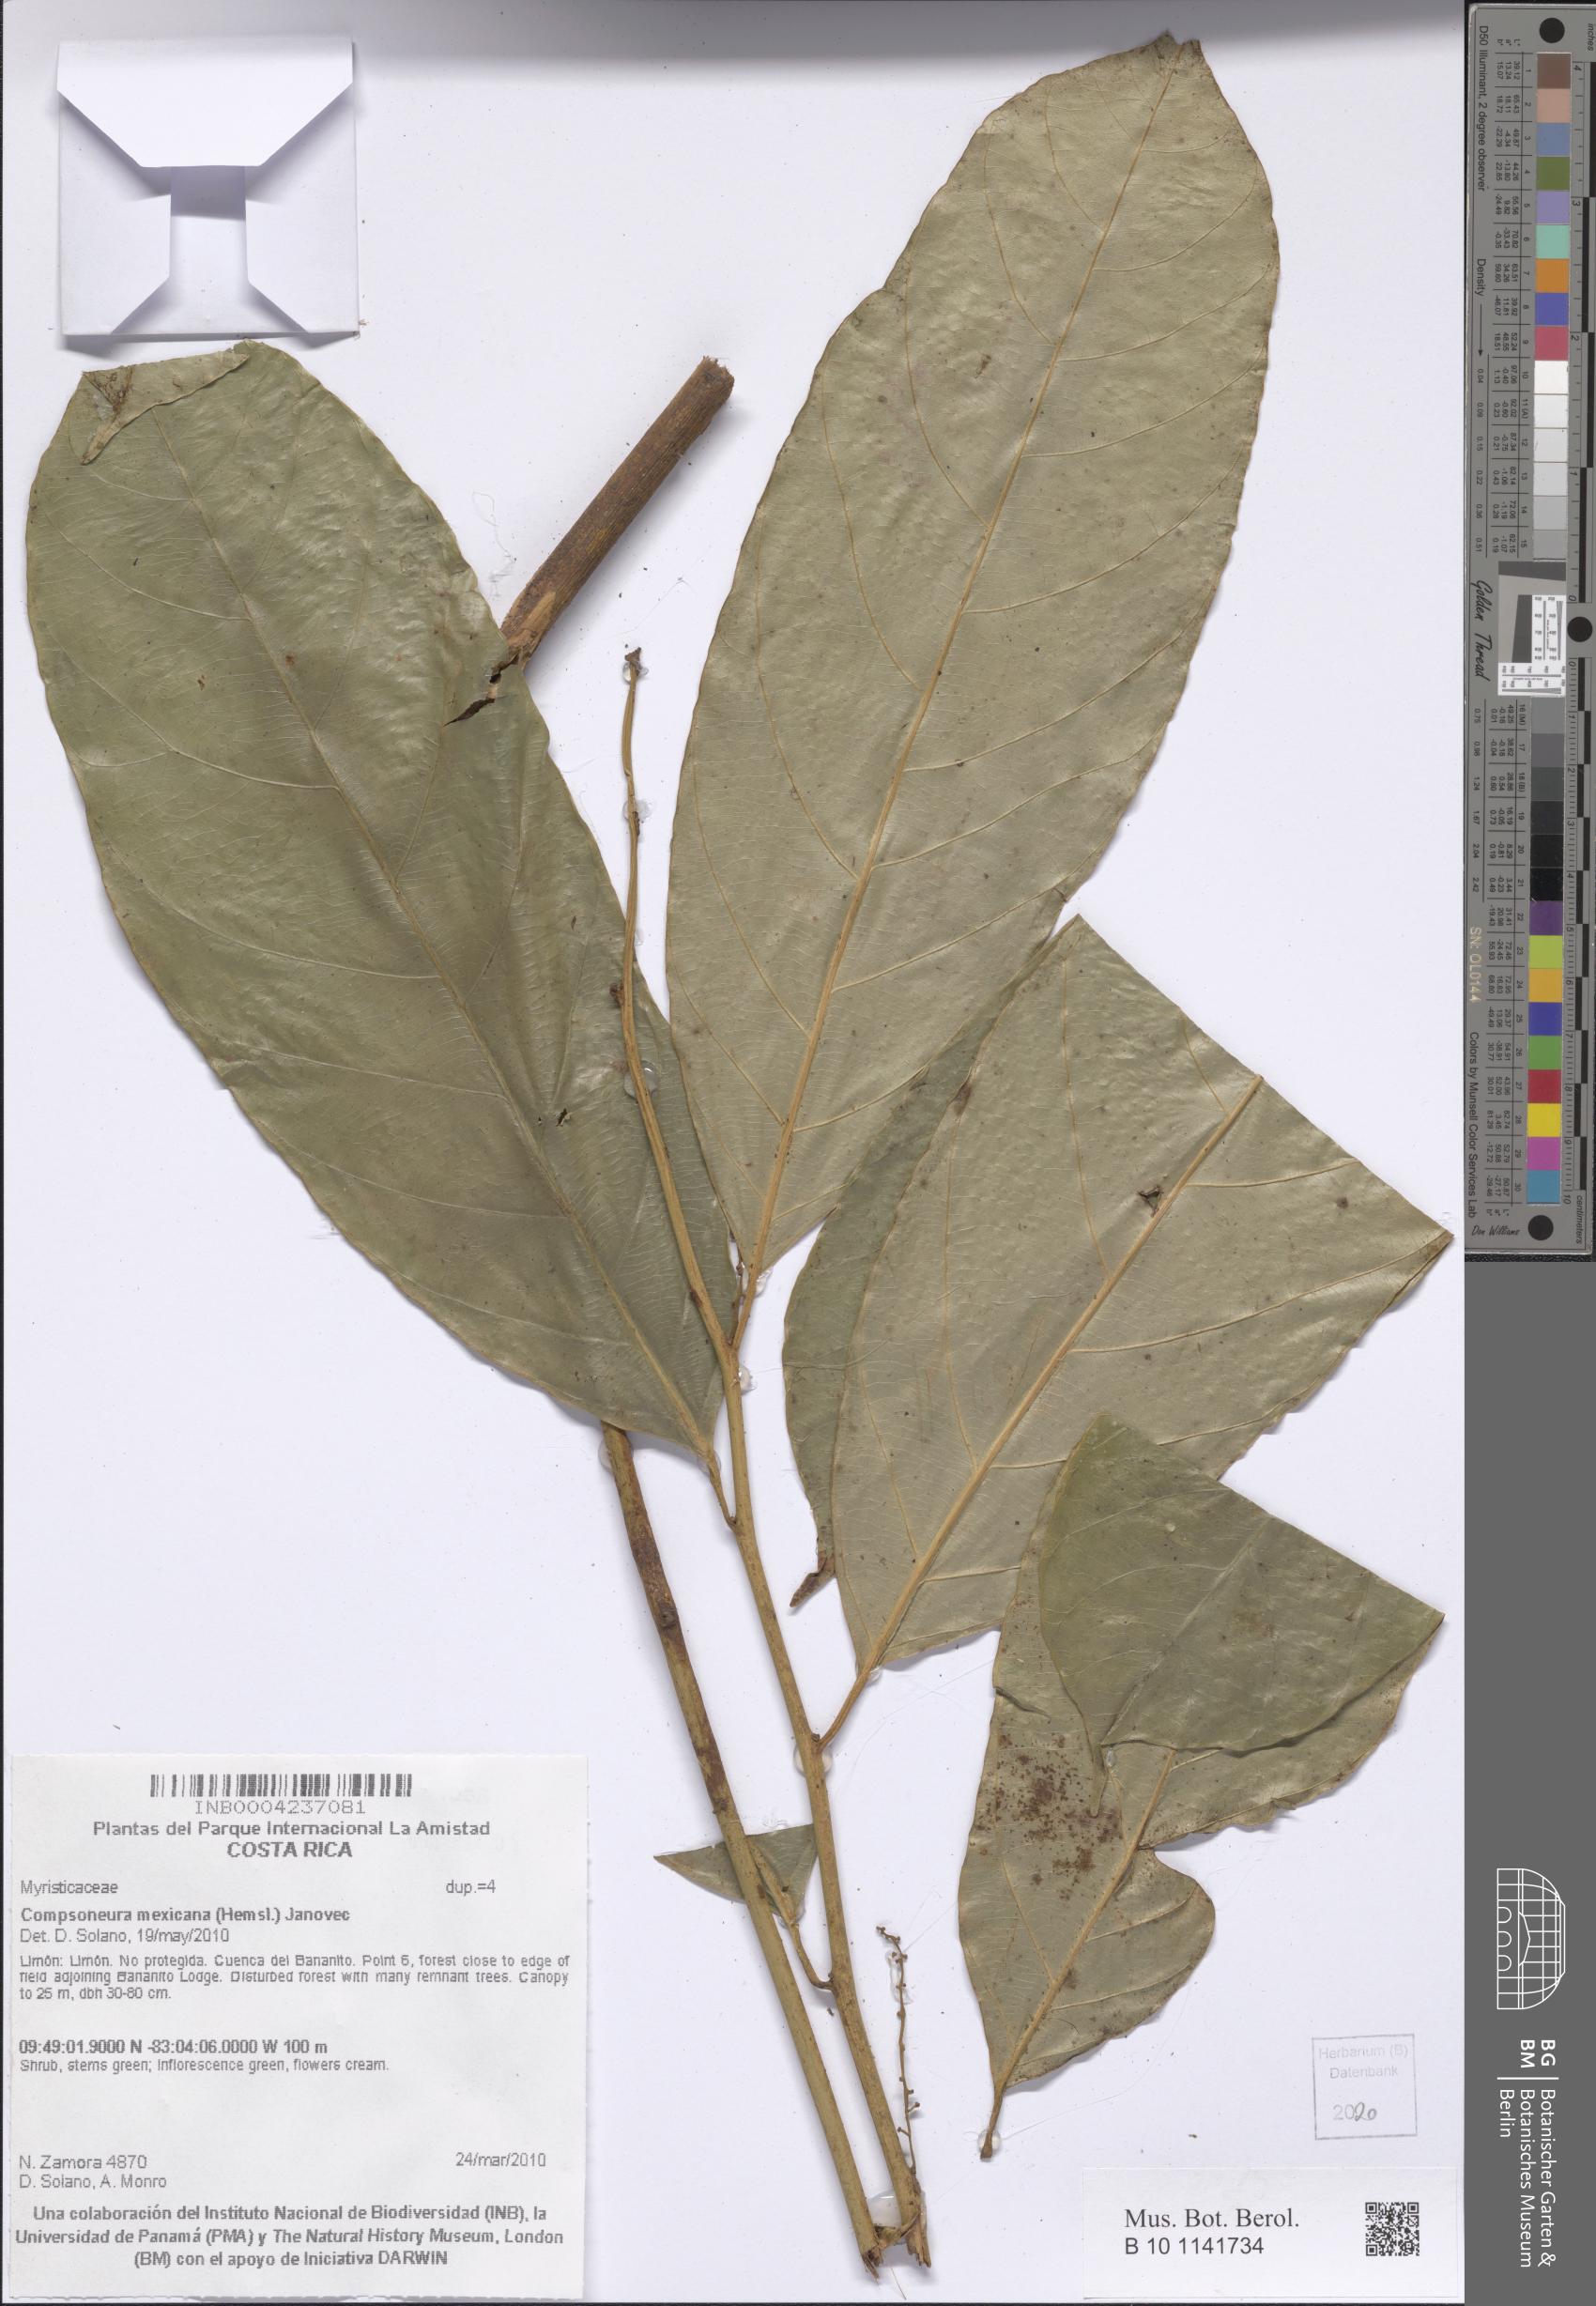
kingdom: Plantae
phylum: Tracheophyta
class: Magnoliopsida
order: Magnoliales
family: Myristicaceae
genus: Compsoneura
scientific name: Compsoneura mexicana
